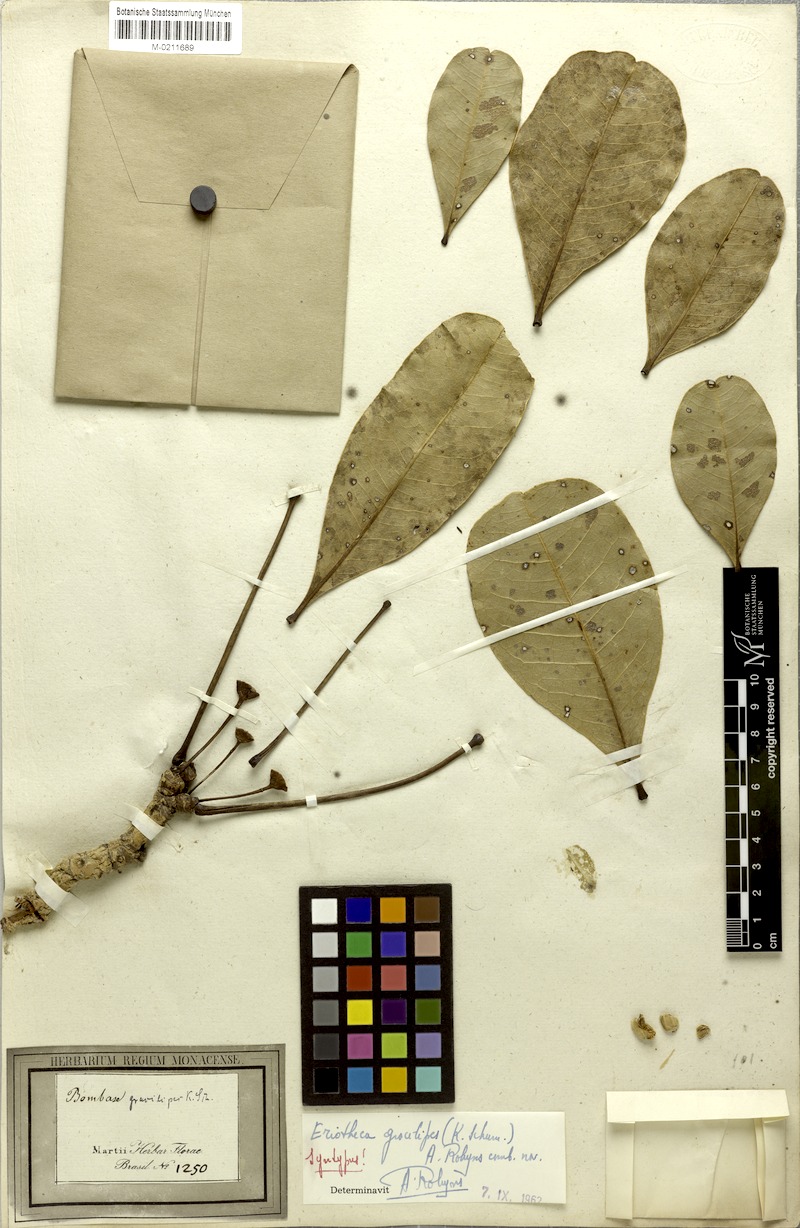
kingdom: Plantae
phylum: Tracheophyta
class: Magnoliopsida
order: Malvales
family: Malvaceae
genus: Eriotheca
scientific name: Eriotheca gracilipes
